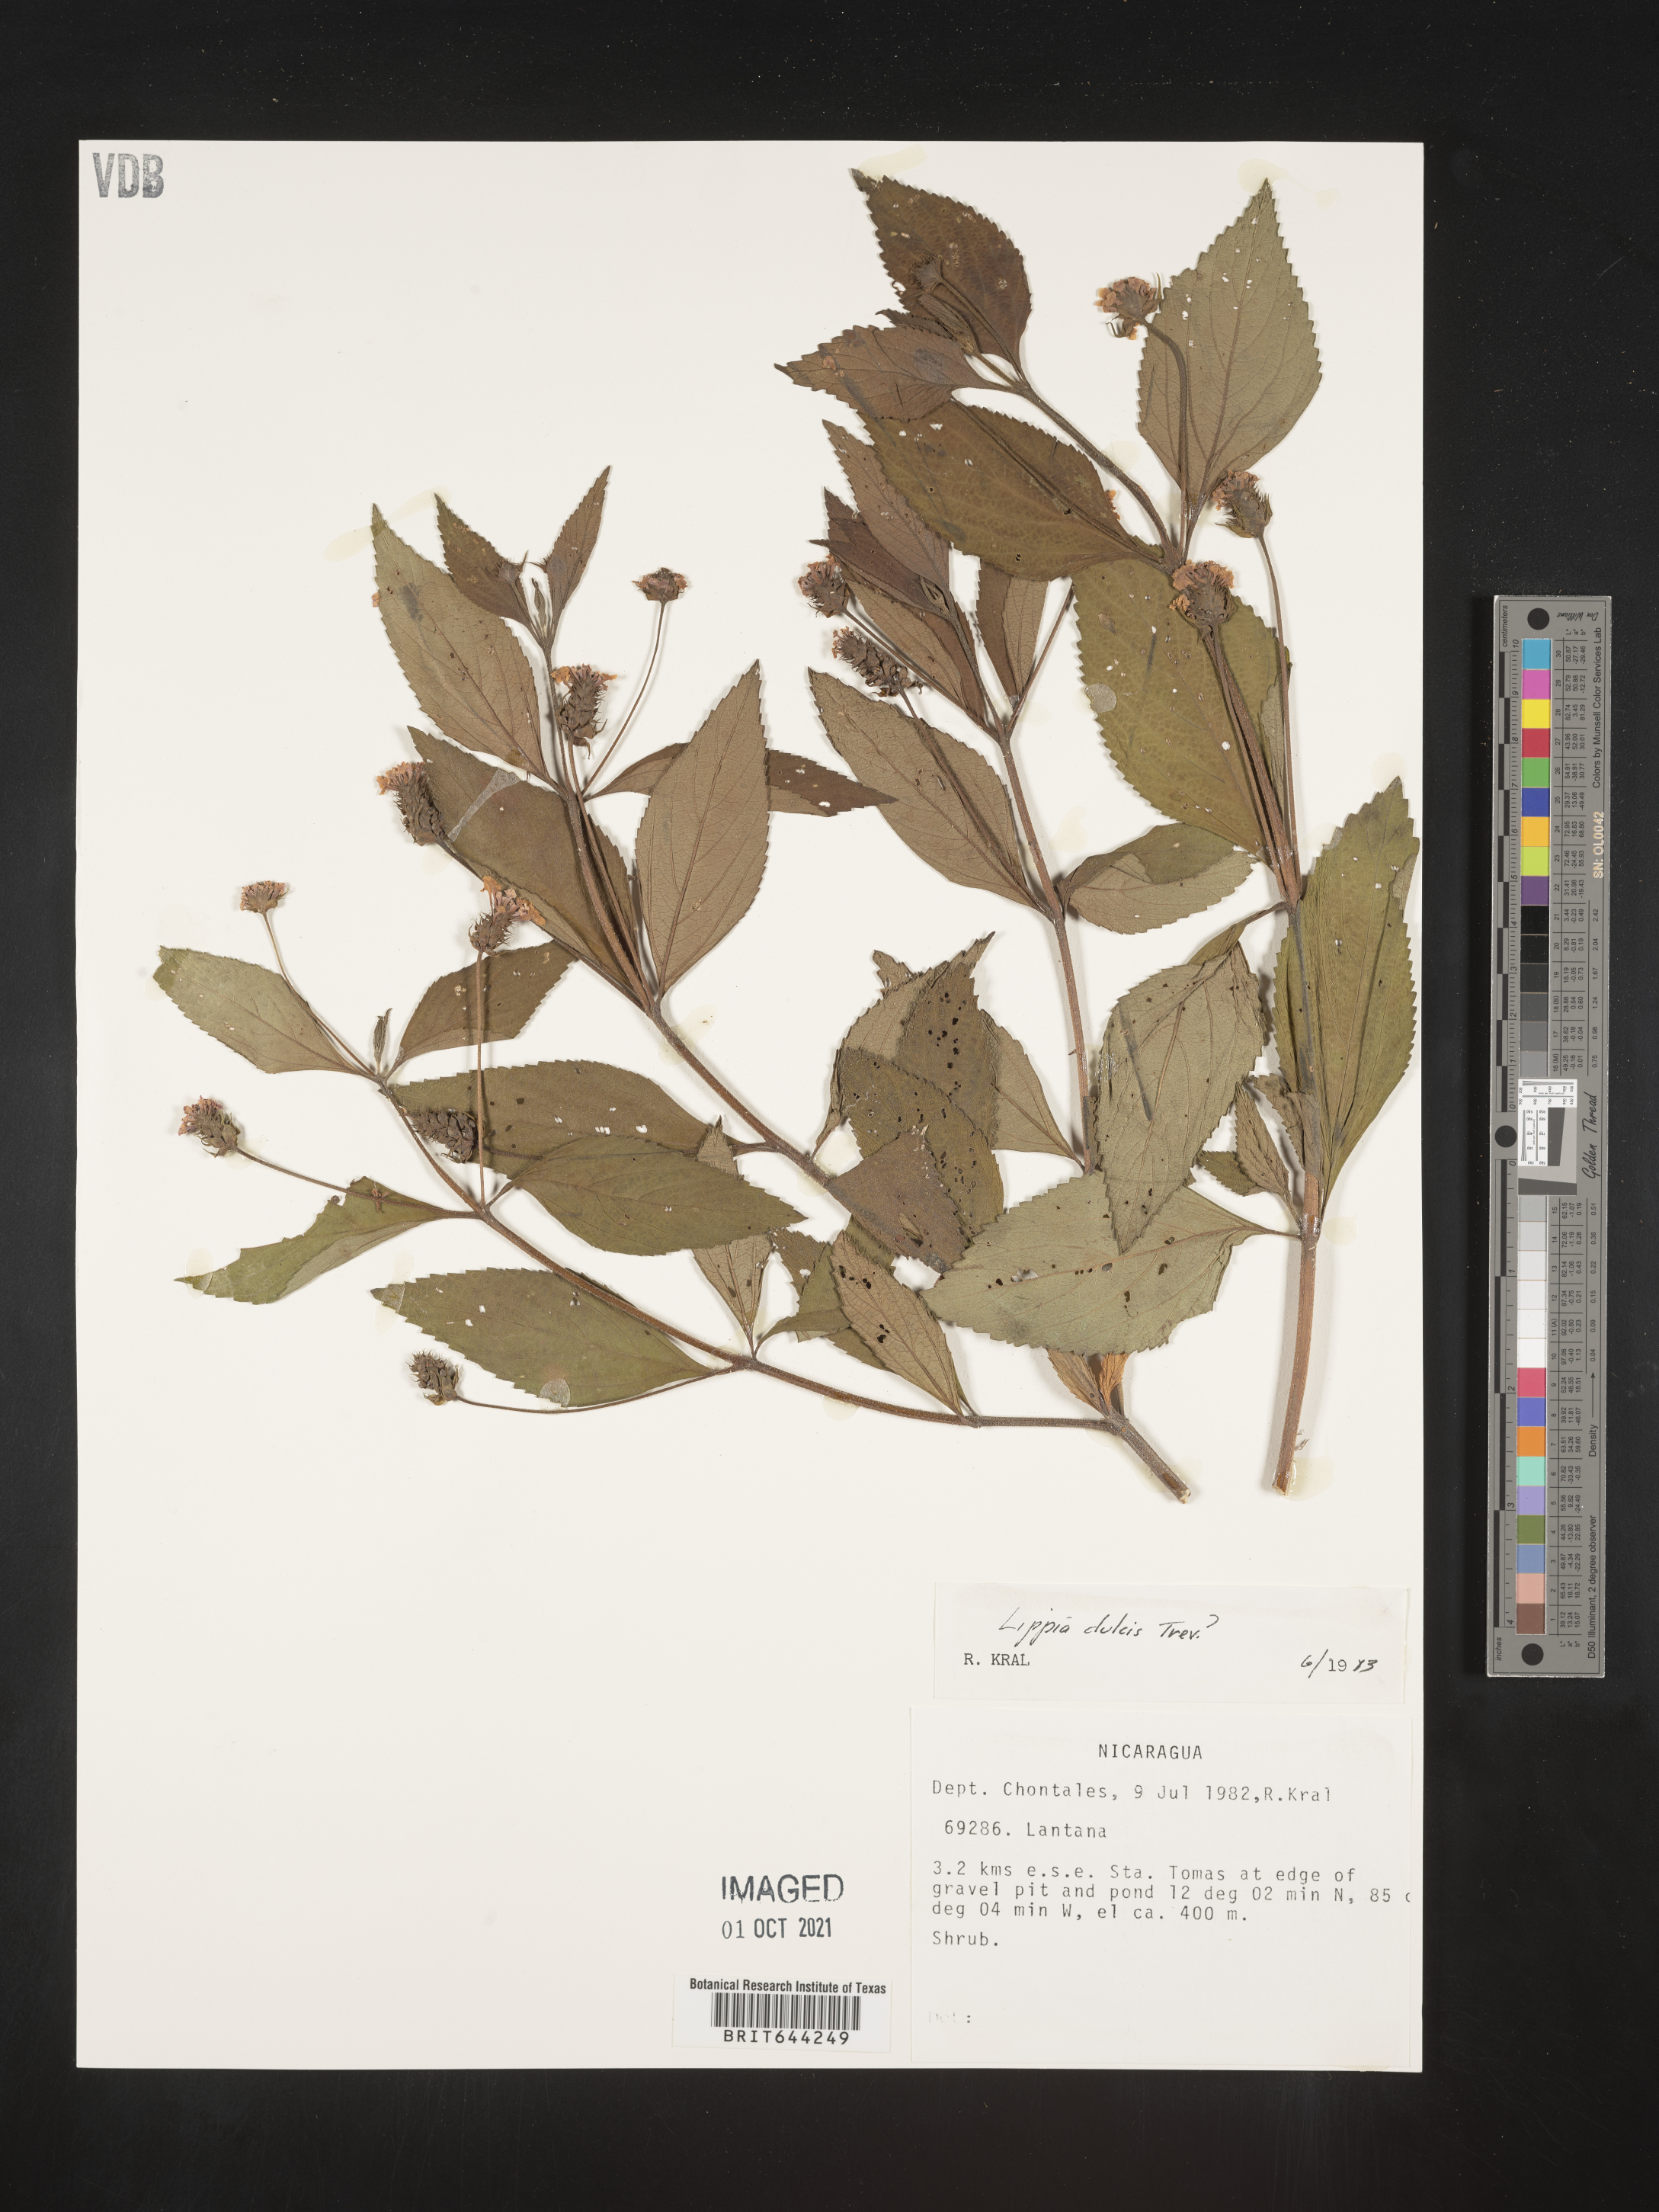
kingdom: Plantae
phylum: Tracheophyta
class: Magnoliopsida
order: Lamiales
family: Verbenaceae
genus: Lippia
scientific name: Lippia
